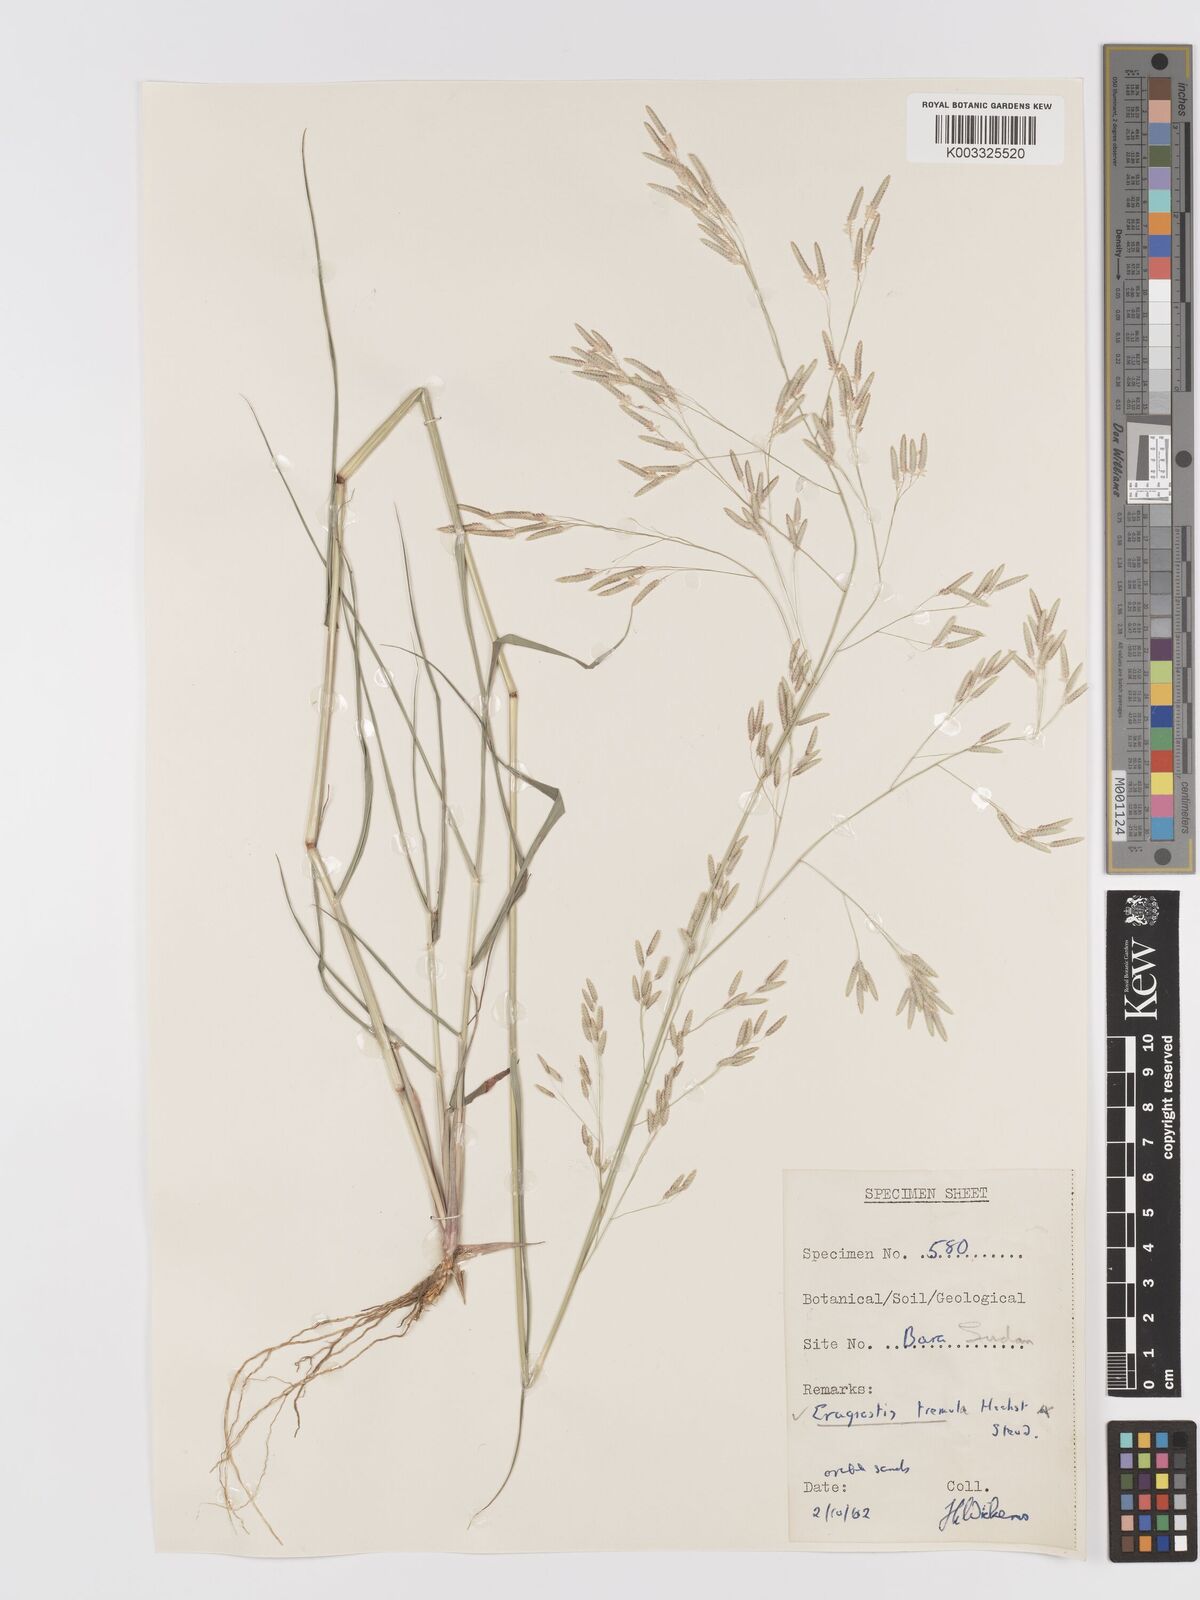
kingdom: Plantae
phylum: Tracheophyta
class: Liliopsida
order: Poales
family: Poaceae
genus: Eragrostis
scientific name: Eragrostis tremula
